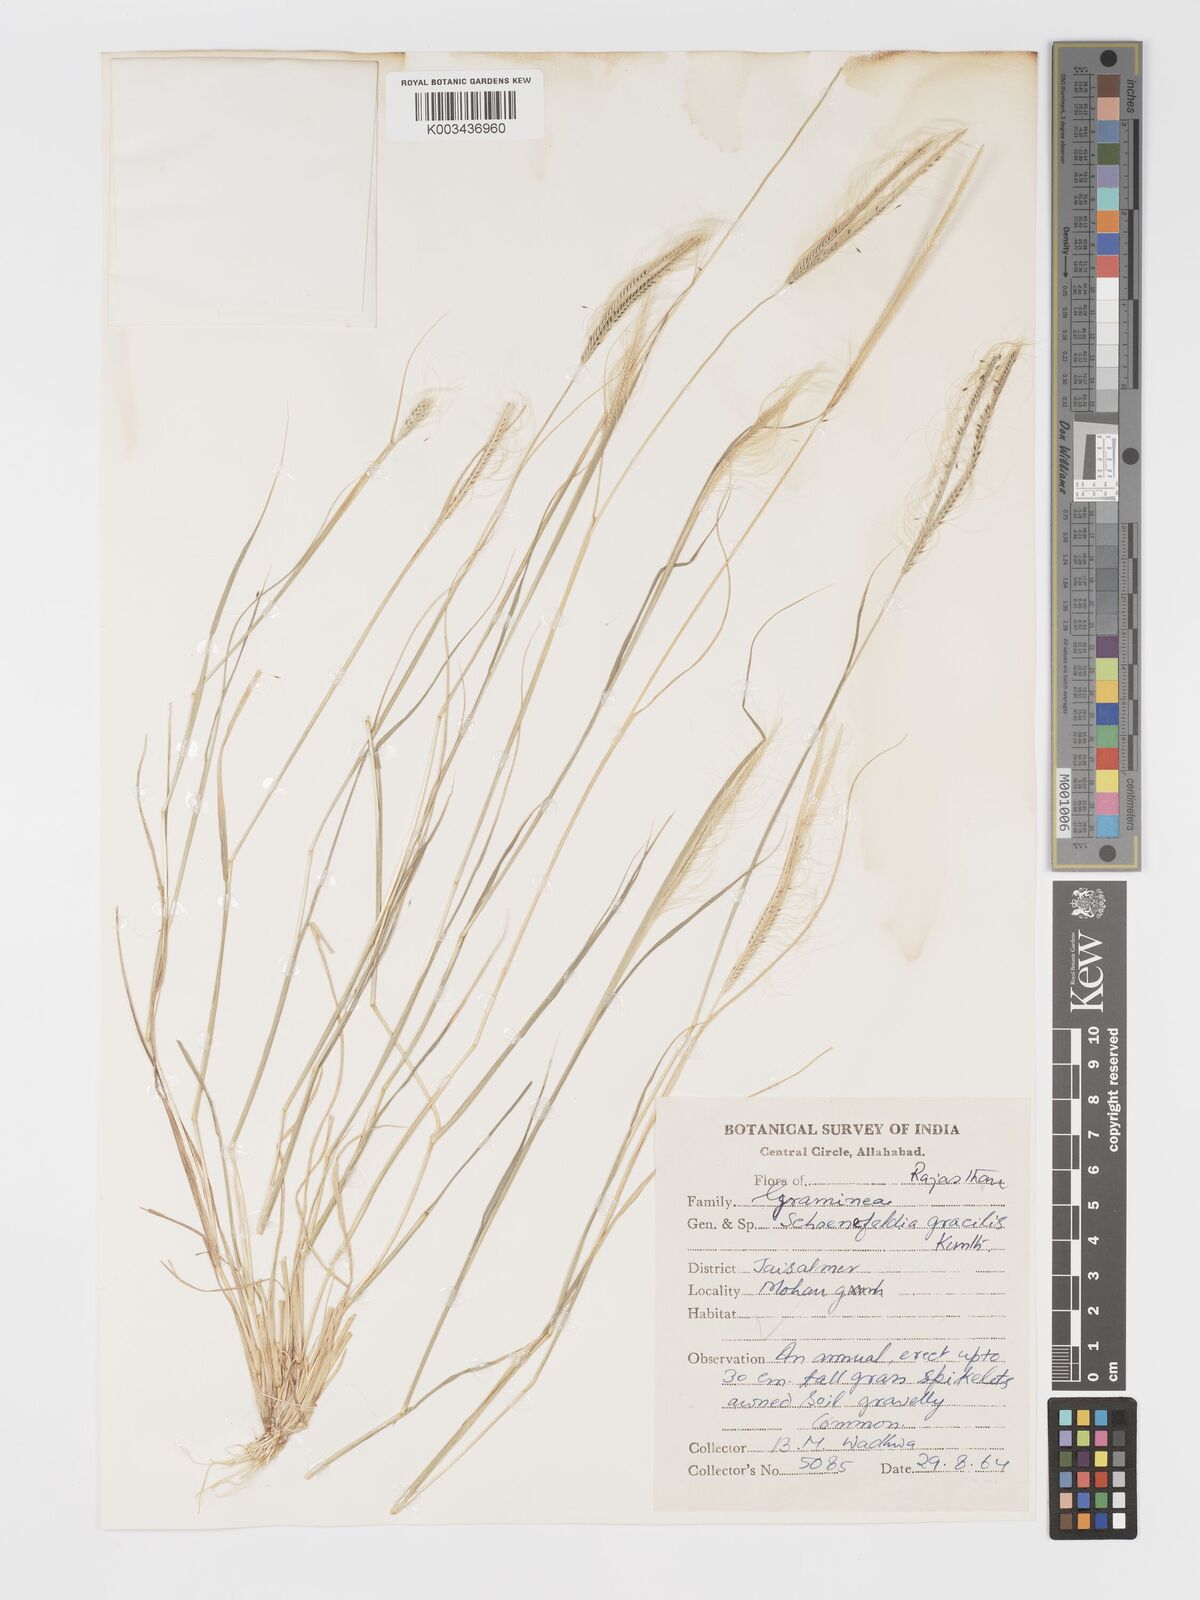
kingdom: Plantae
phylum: Tracheophyta
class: Liliopsida
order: Poales
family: Poaceae
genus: Schoenefeldia
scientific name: Schoenefeldia gracilis
